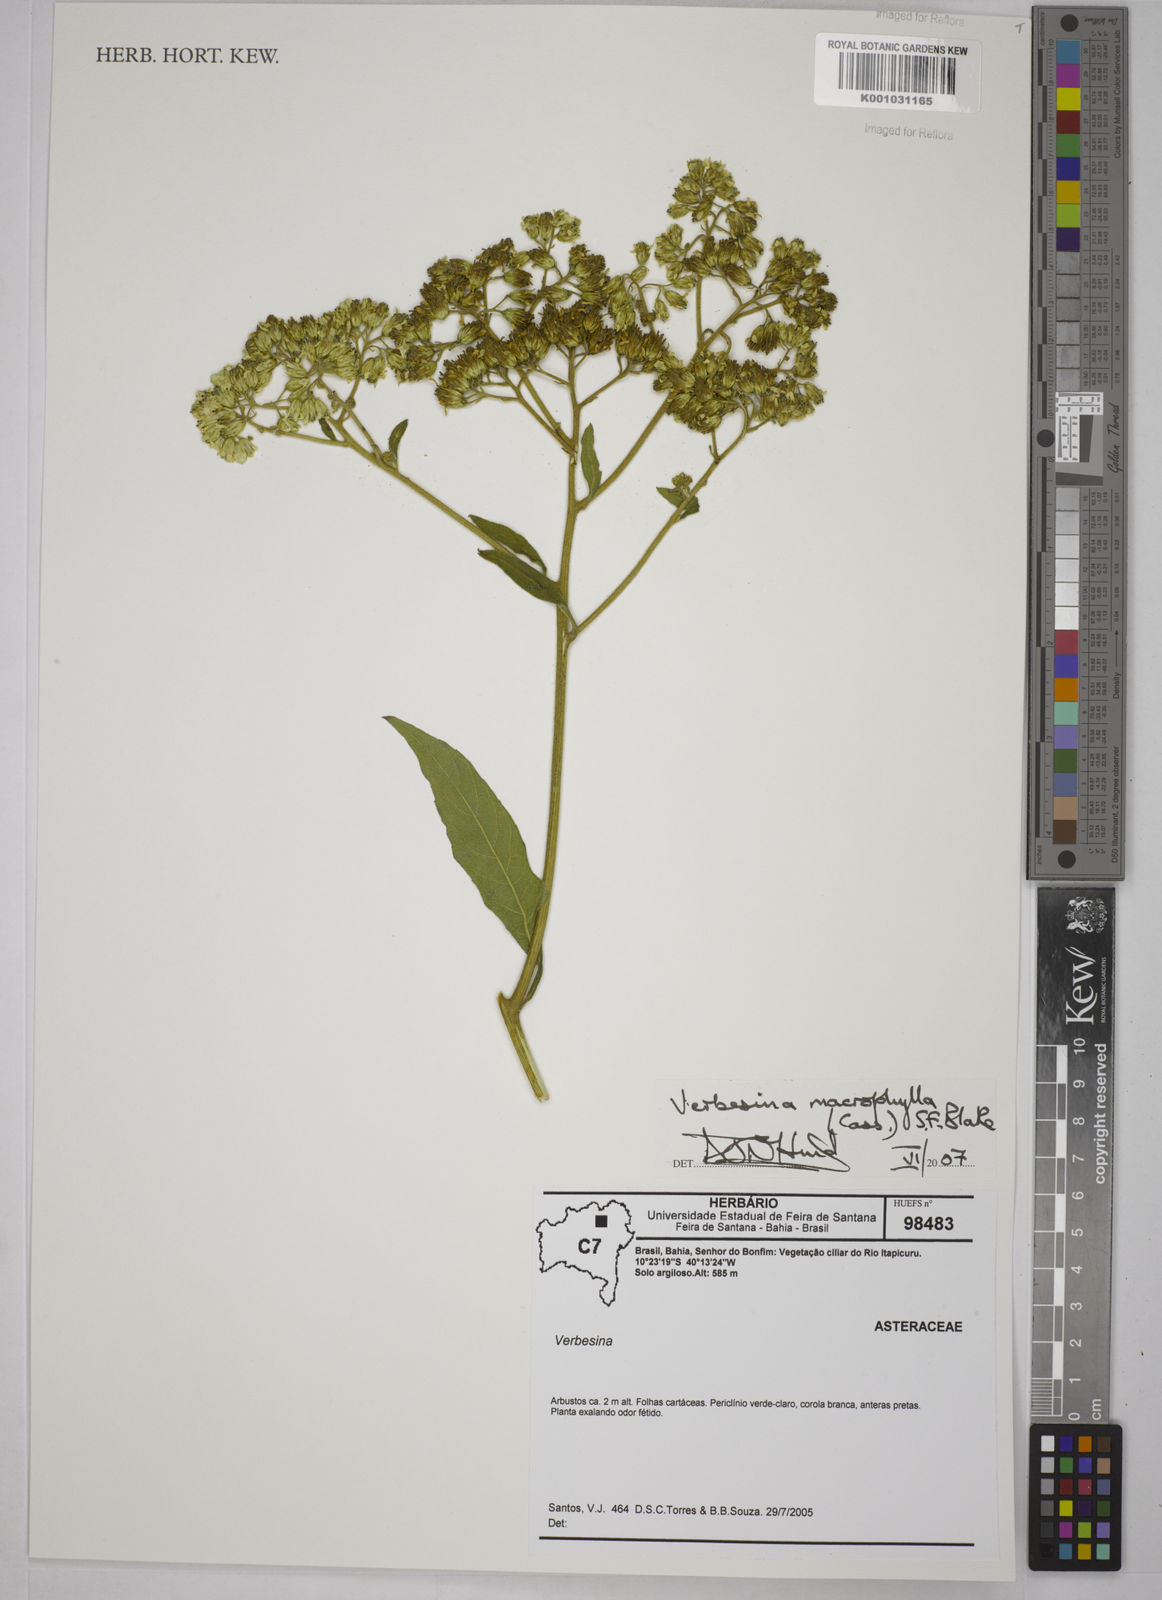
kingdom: Plantae
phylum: Tracheophyta
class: Magnoliopsida
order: Asterales
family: Asteraceae
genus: Verbesina
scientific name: Verbesina macrophylla
